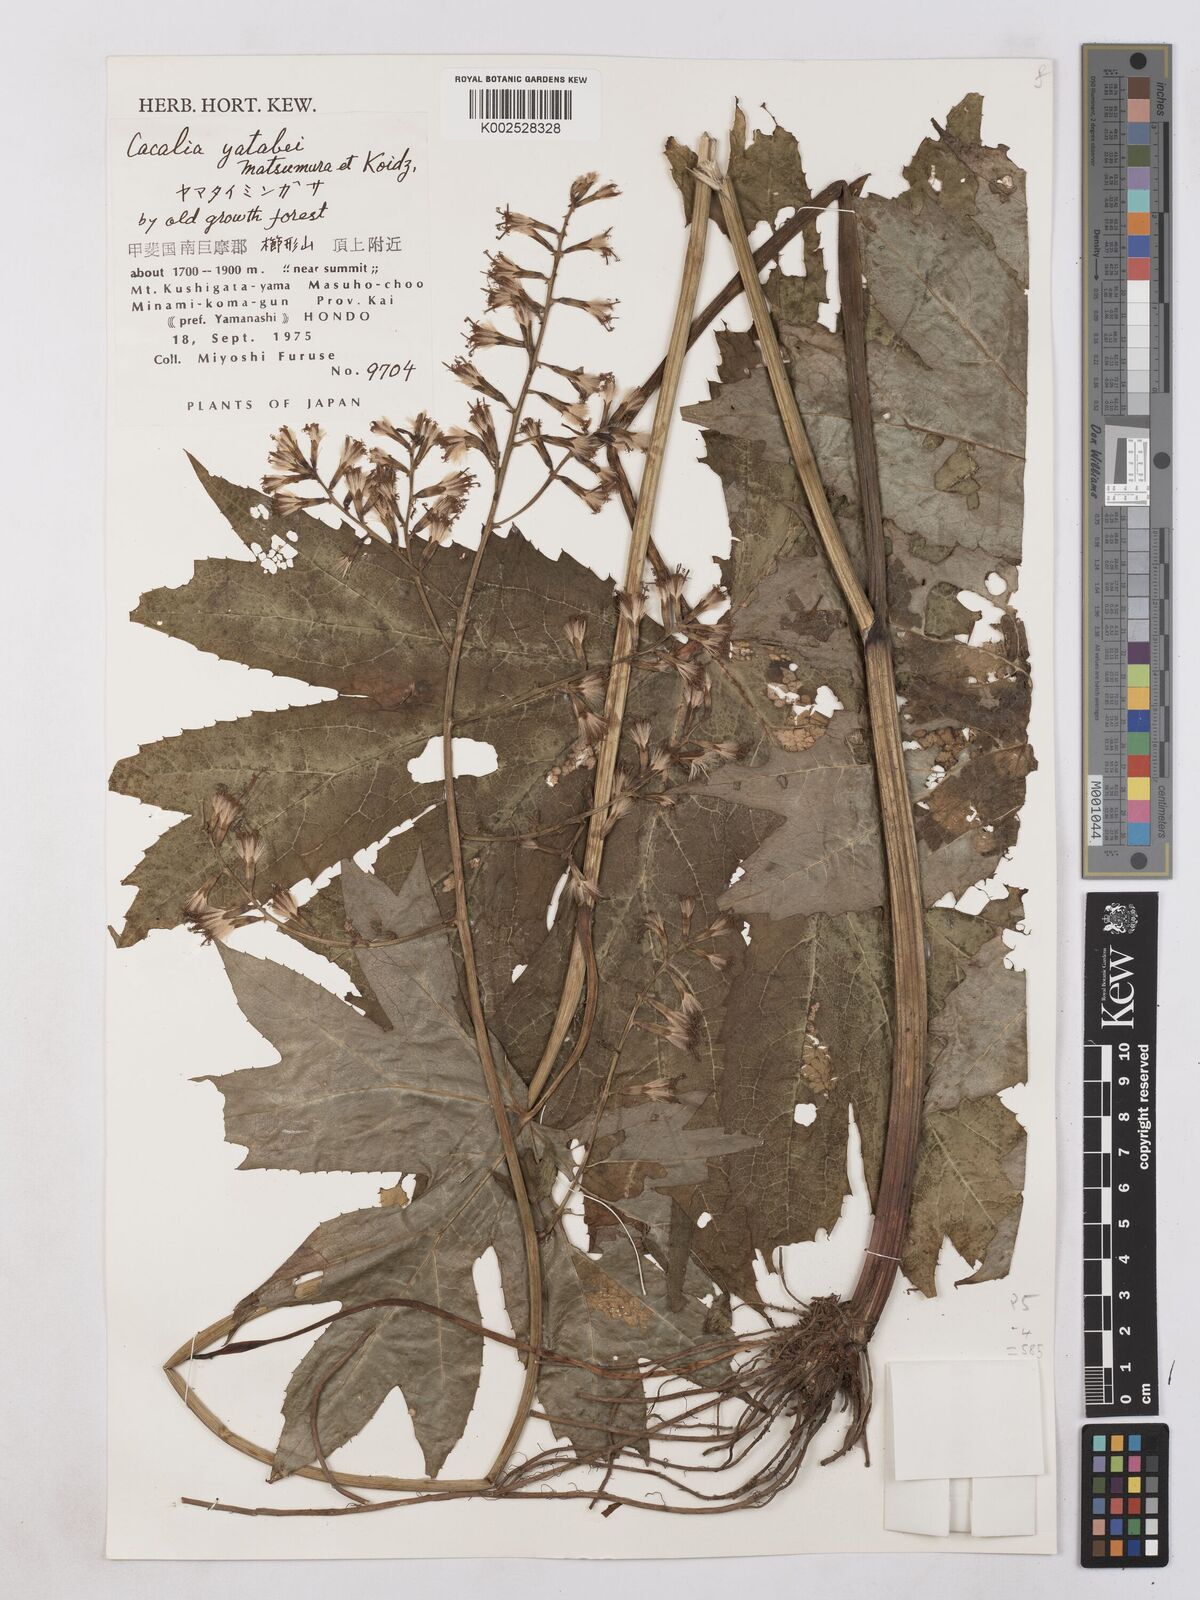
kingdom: Plantae
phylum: Tracheophyta
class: Magnoliopsida
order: Asterales
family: Asteraceae
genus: Taimingasa
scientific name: Taimingasa yatabei
